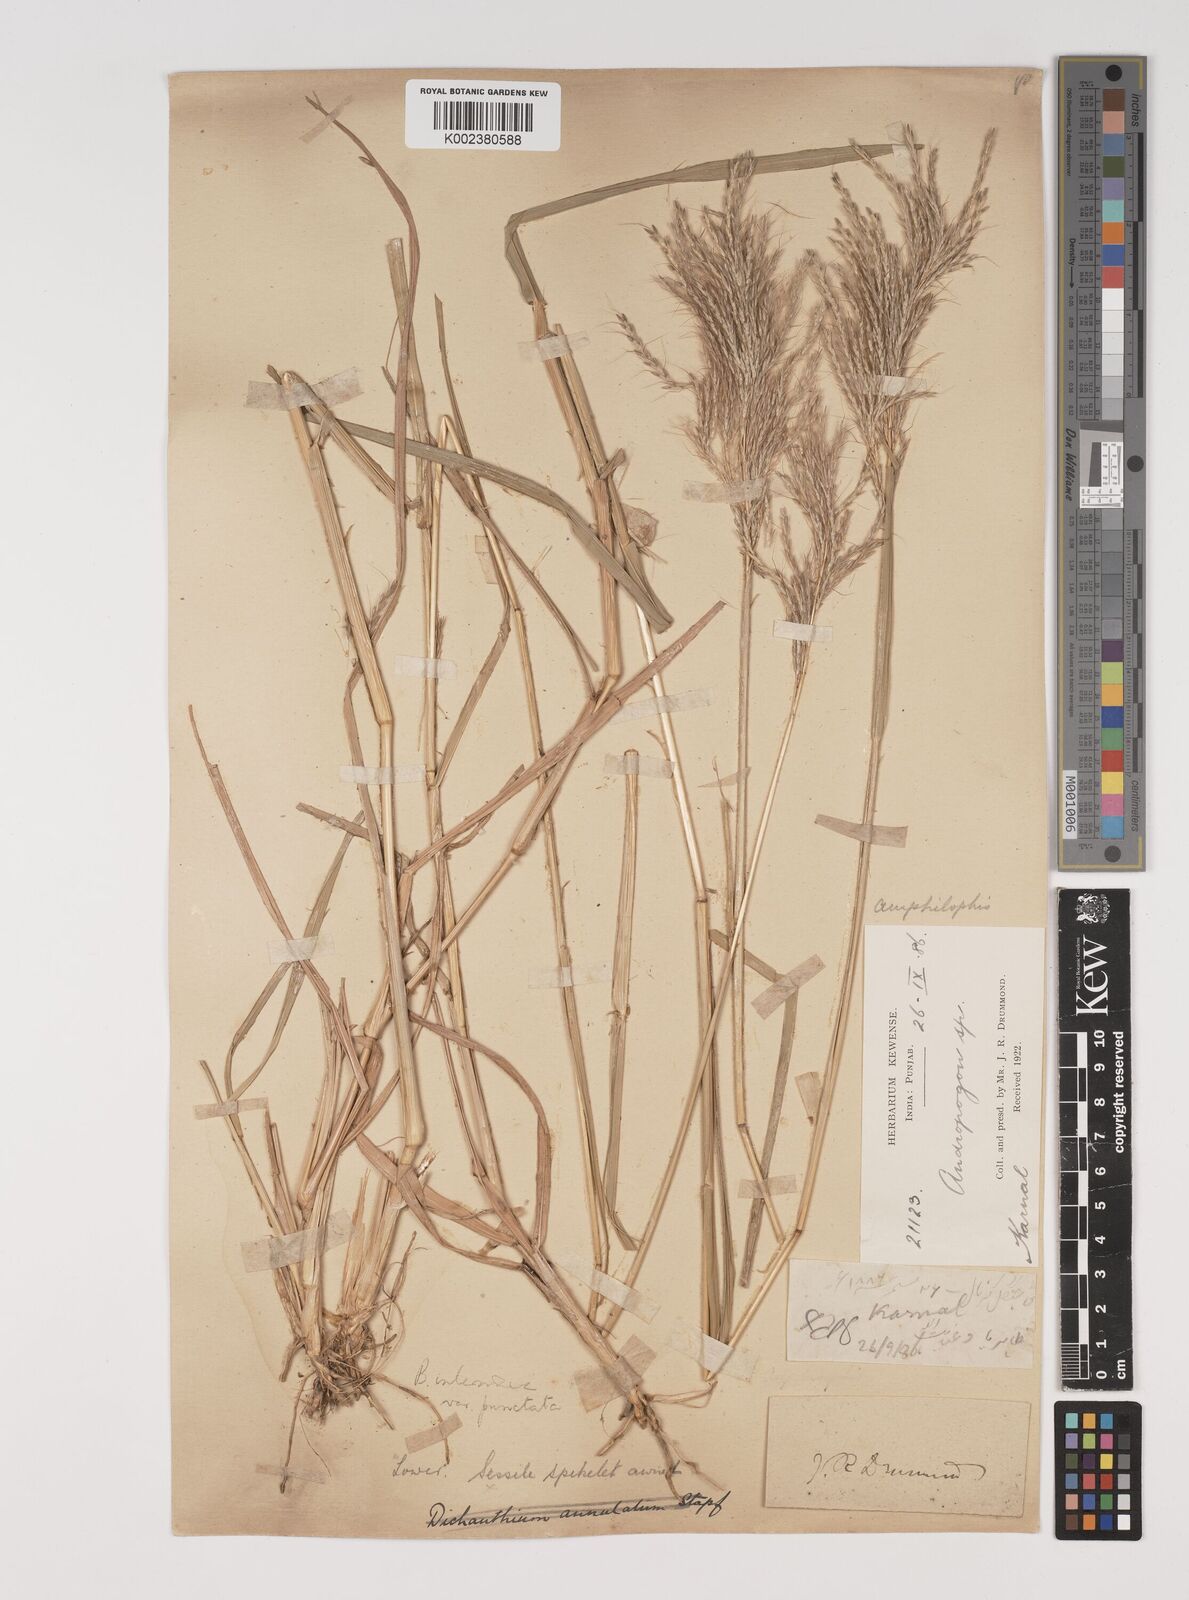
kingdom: Plantae
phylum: Tracheophyta
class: Liliopsida
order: Poales
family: Poaceae
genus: Bothriochloa
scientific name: Bothriochloa bladhii
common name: Caucasian bluestem
